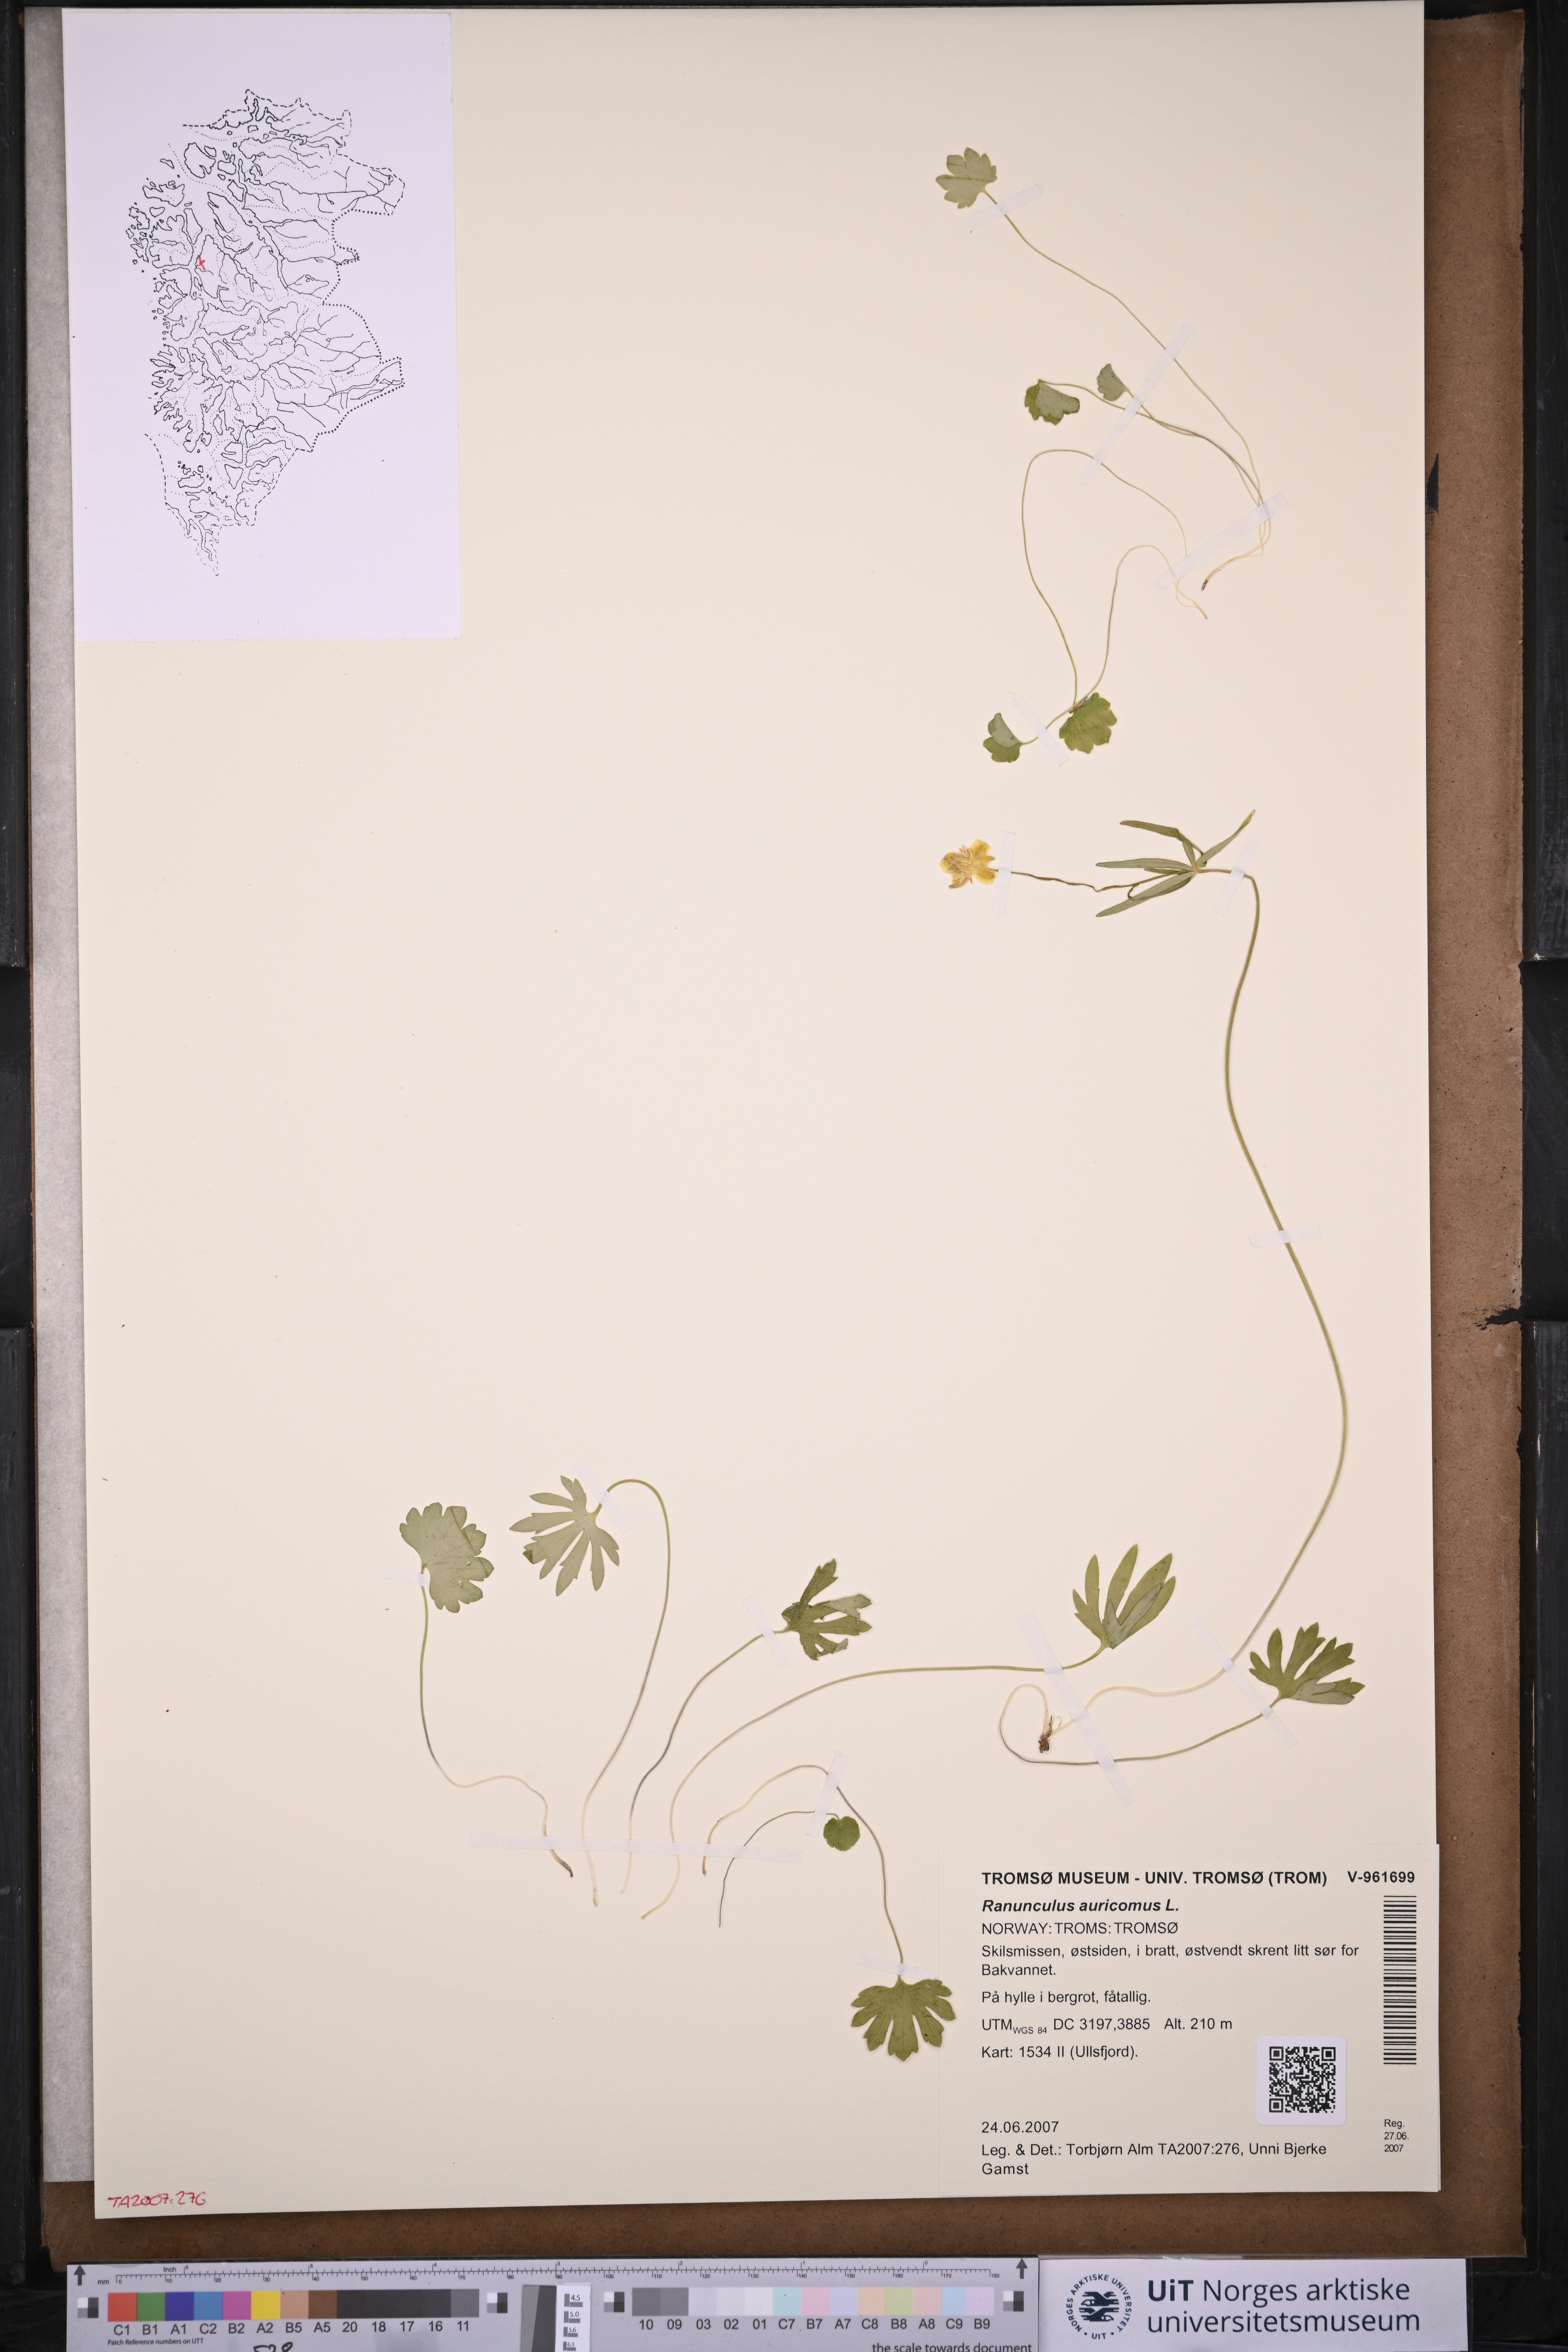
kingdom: Plantae
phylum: Tracheophyta
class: Magnoliopsida
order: Ranunculales
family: Ranunculaceae
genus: Ranunculus
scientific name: Ranunculus auricomus
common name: Goldilocks buttercup
